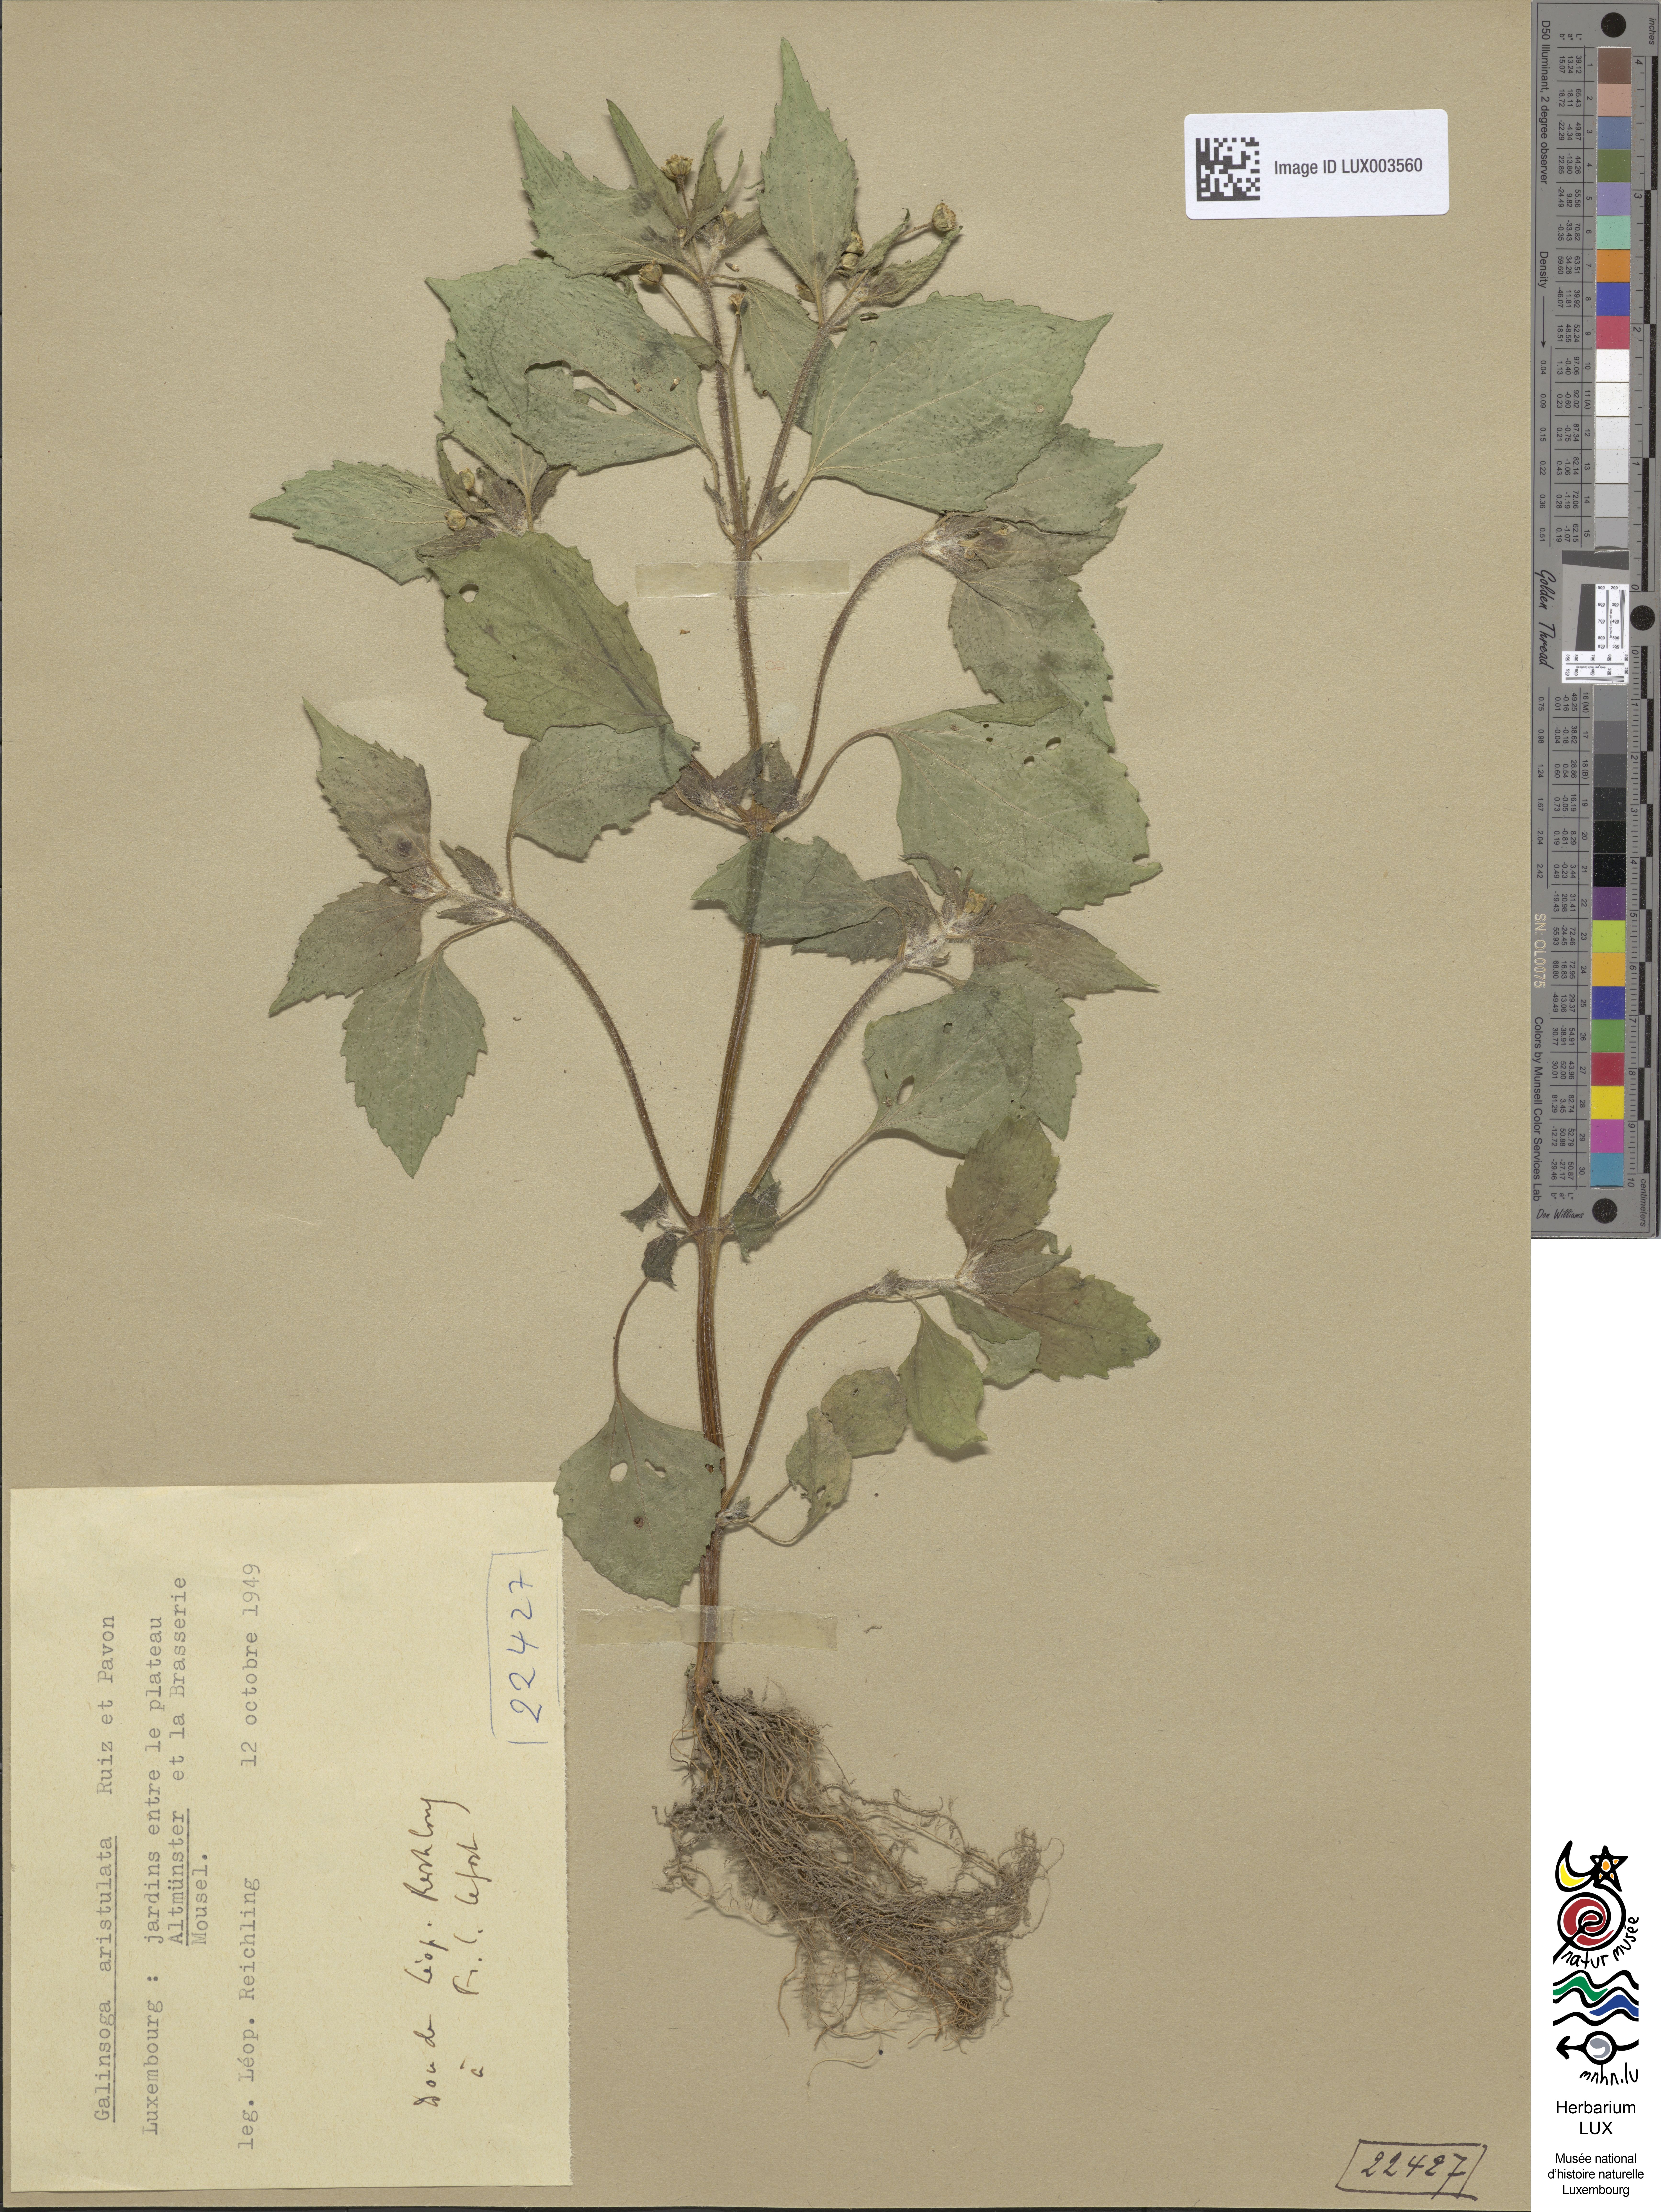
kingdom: Plantae
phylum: Tracheophyta
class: Magnoliopsida
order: Asterales
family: Asteraceae
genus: Galinsoga
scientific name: Galinsoga quadriradiata
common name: Shaggy soldier
